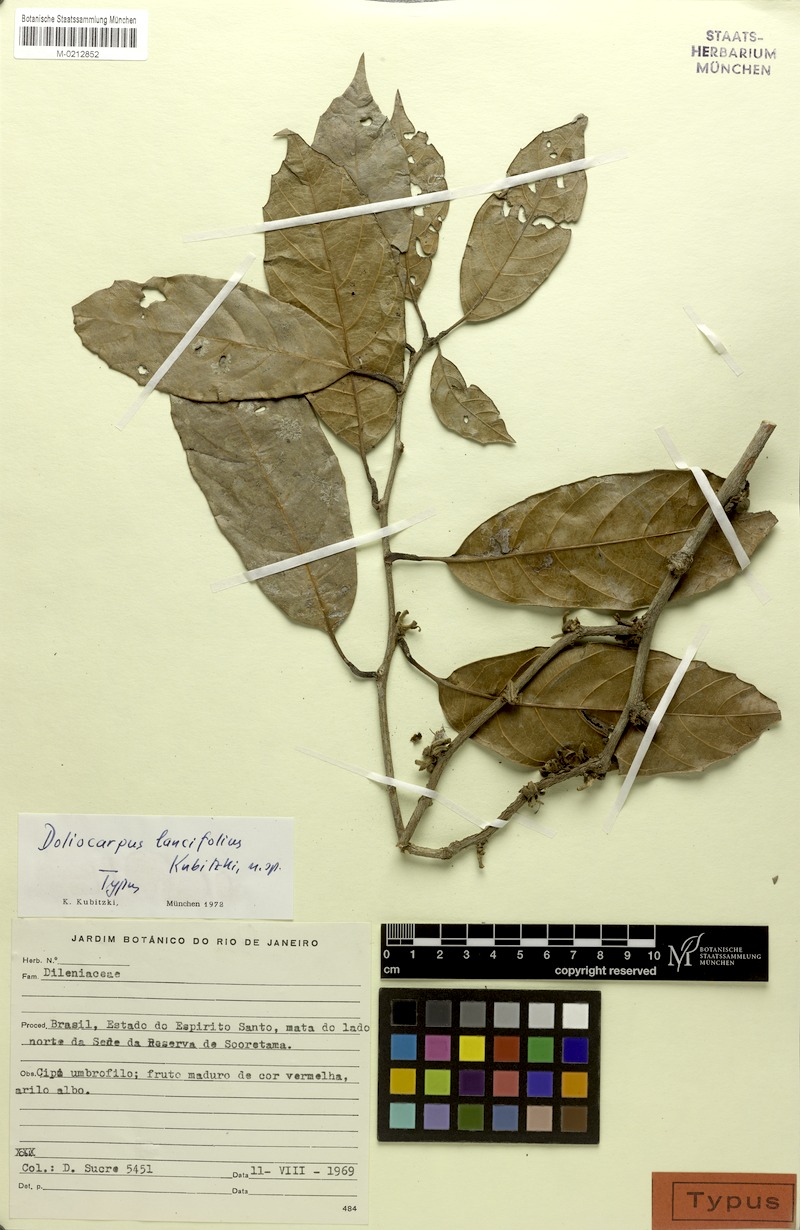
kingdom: Plantae
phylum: Tracheophyta
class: Magnoliopsida
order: Dilleniales
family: Dilleniaceae
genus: Doliocarpus
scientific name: Doliocarpus lancifolius
